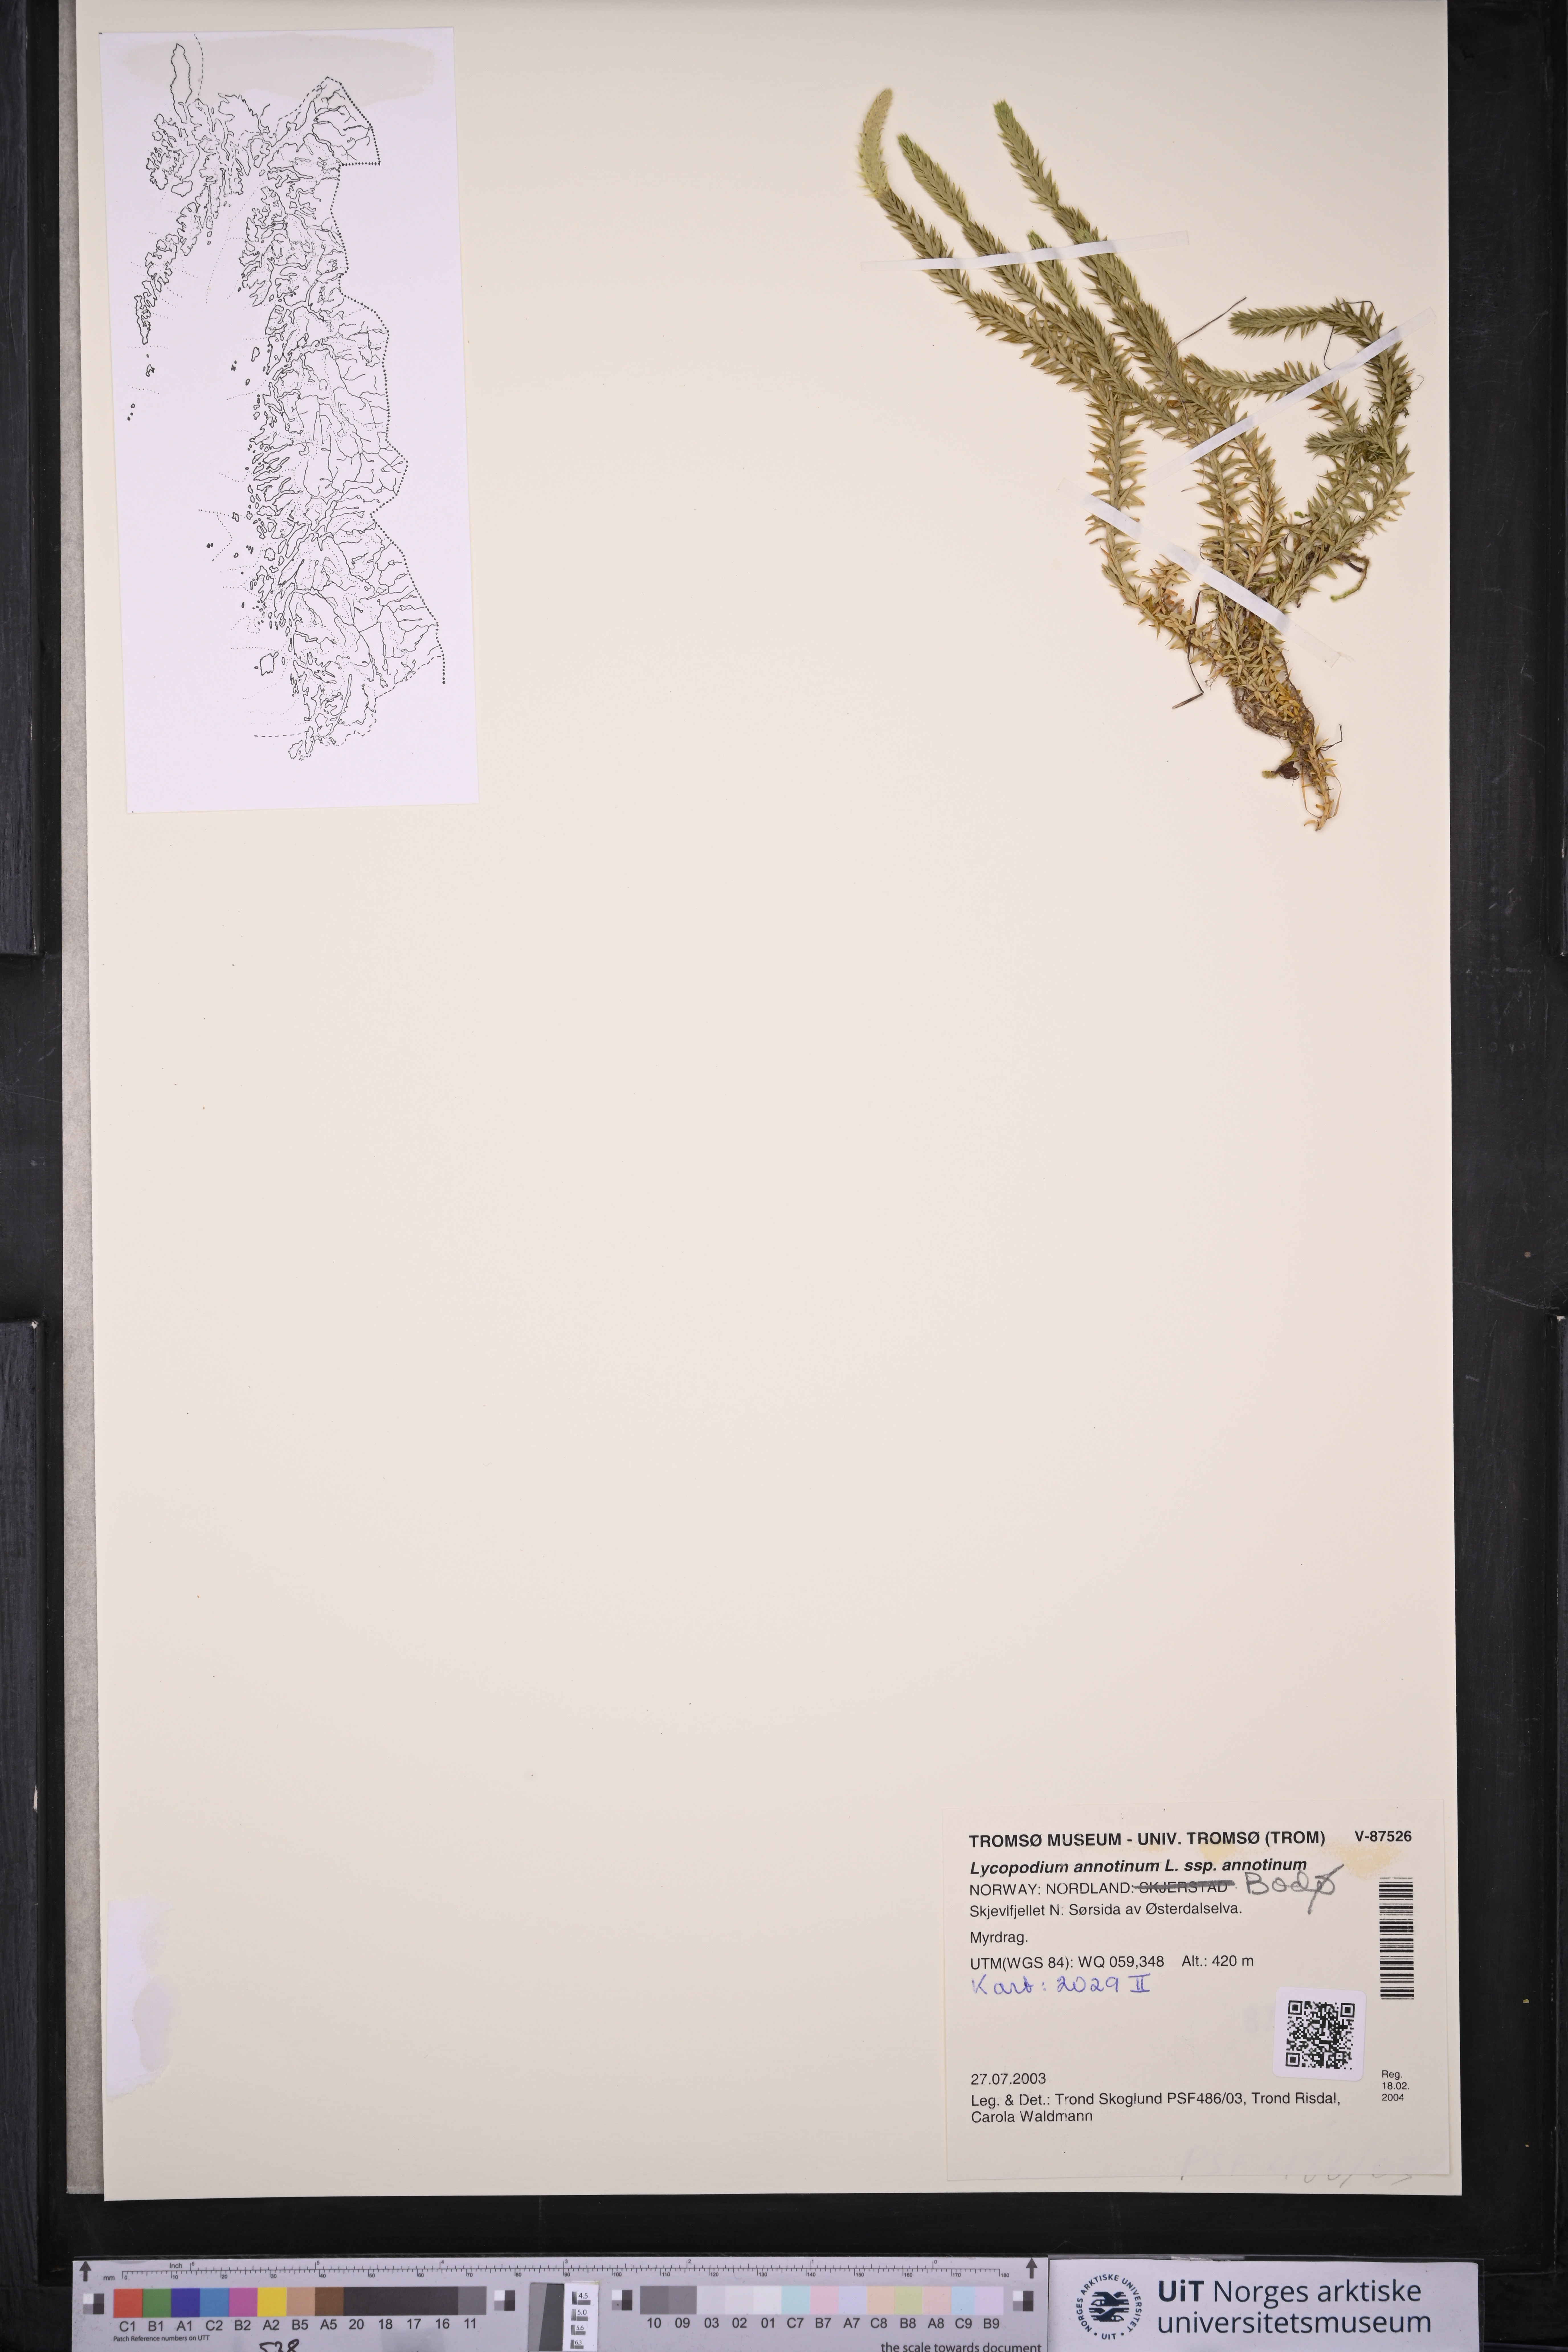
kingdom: Plantae
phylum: Tracheophyta
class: Lycopodiopsida
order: Lycopodiales
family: Lycopodiaceae
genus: Spinulum
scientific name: Spinulum annotinum
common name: Interrupted club-moss
